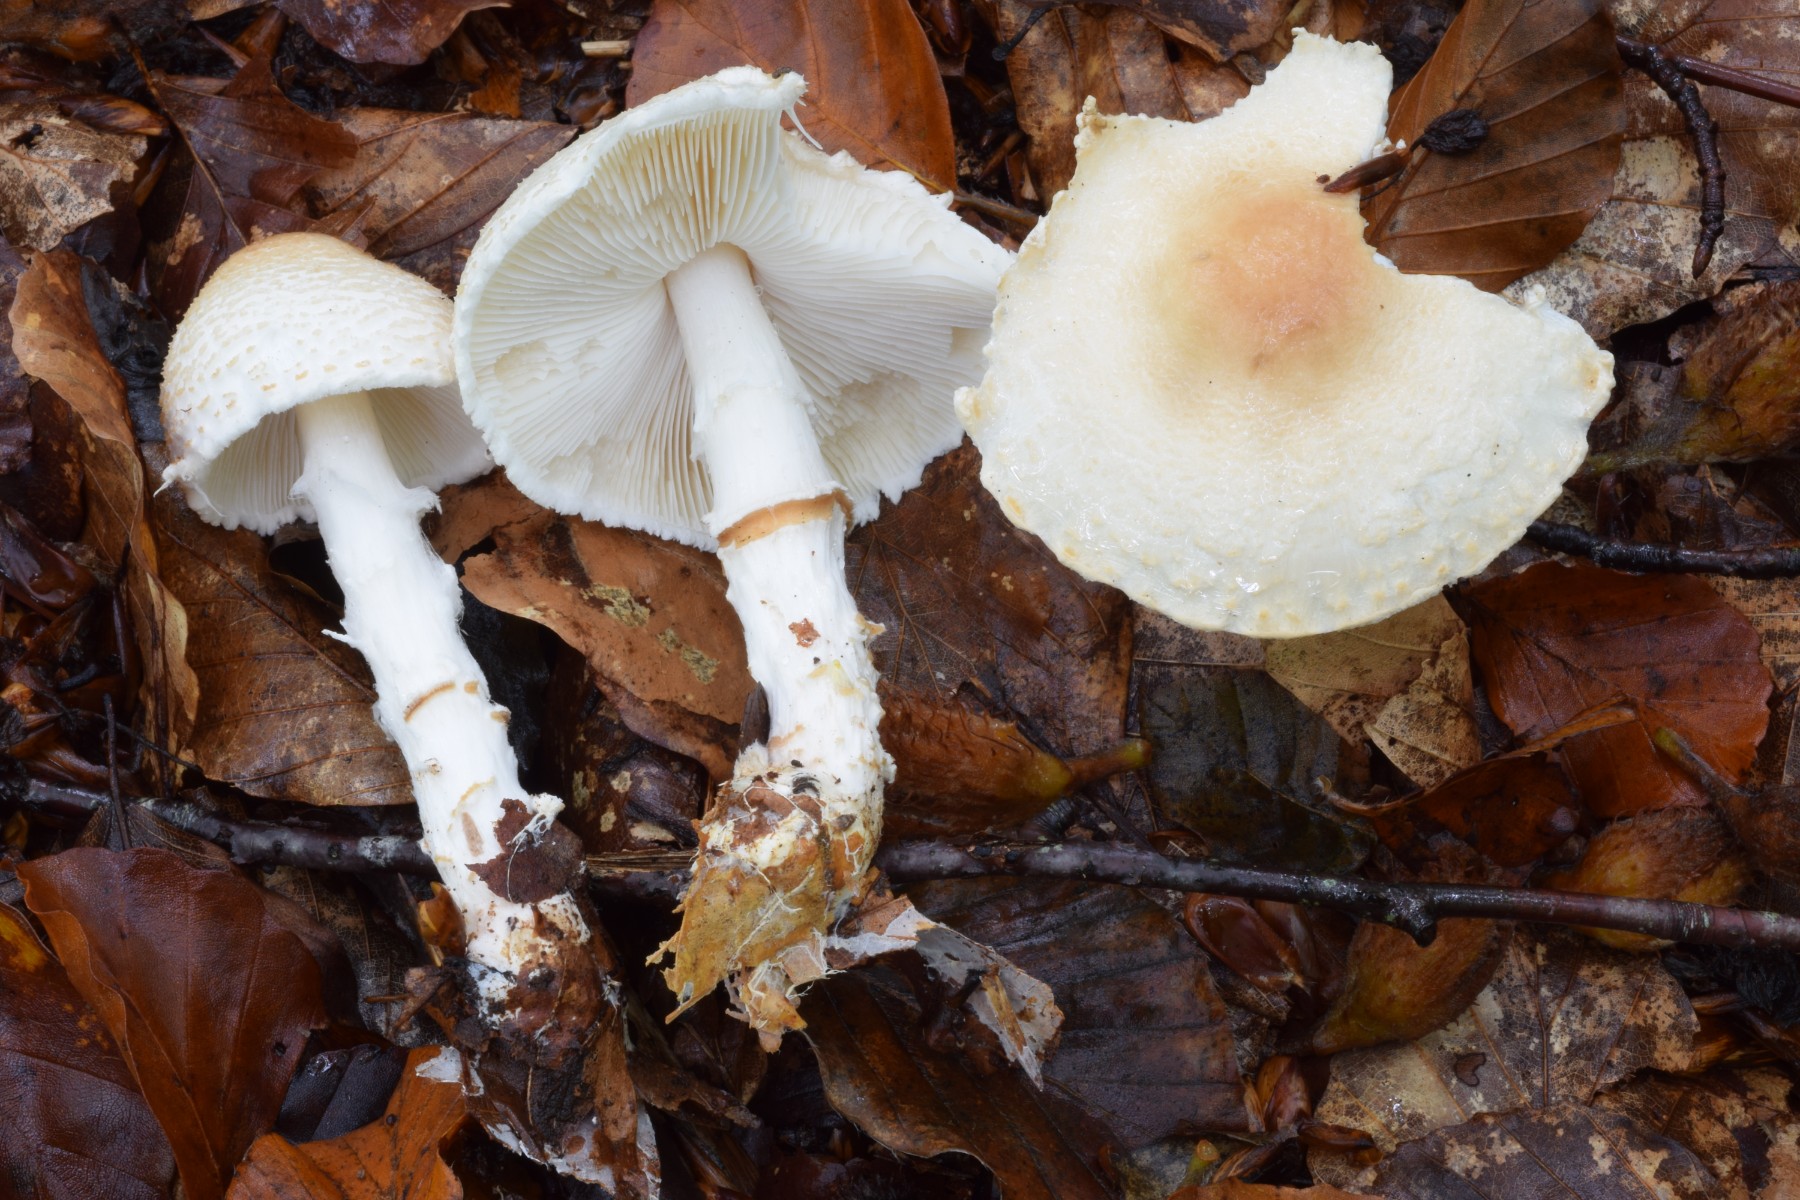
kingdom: Fungi
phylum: Basidiomycota
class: Agaricomycetes
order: Agaricales
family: Agaricaceae
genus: Lepiota
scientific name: Lepiota ignivolvata
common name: orangefodet parasolhat
